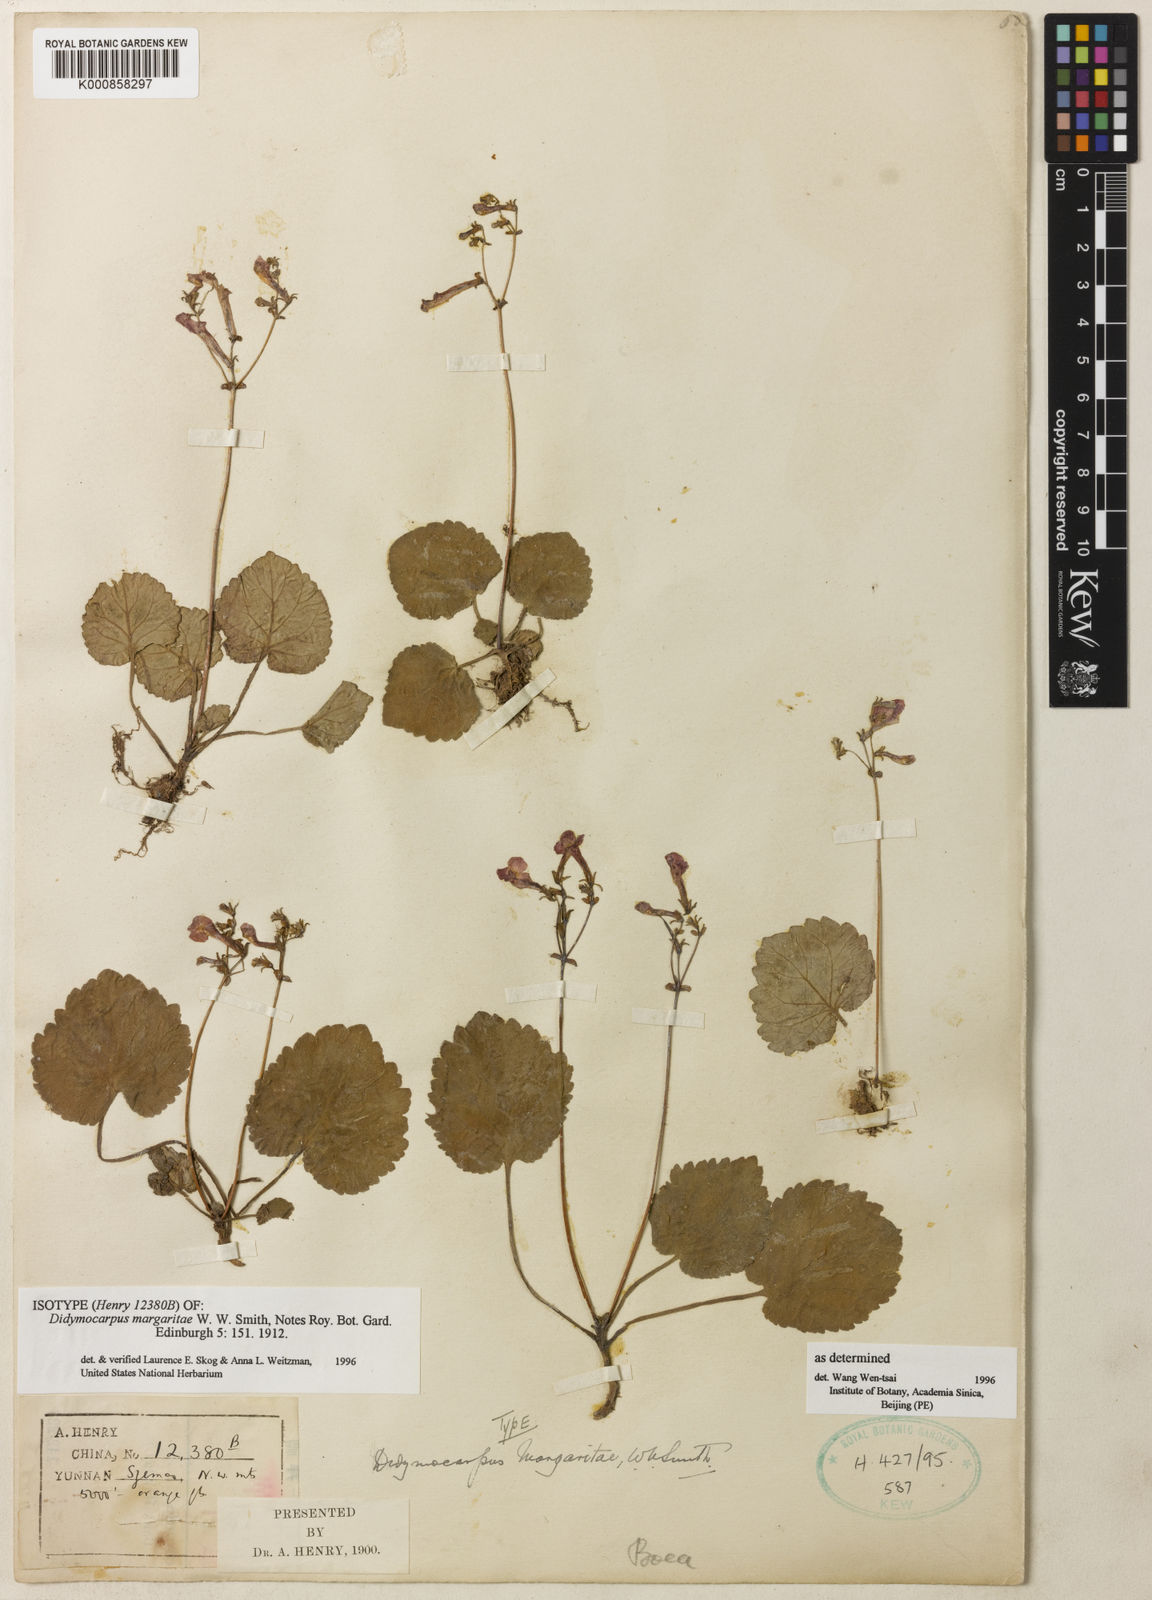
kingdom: Plantae
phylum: Tracheophyta
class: Magnoliopsida
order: Lamiales
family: Gesneriaceae
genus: Didymocarpus
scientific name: Didymocarpus margaritae
